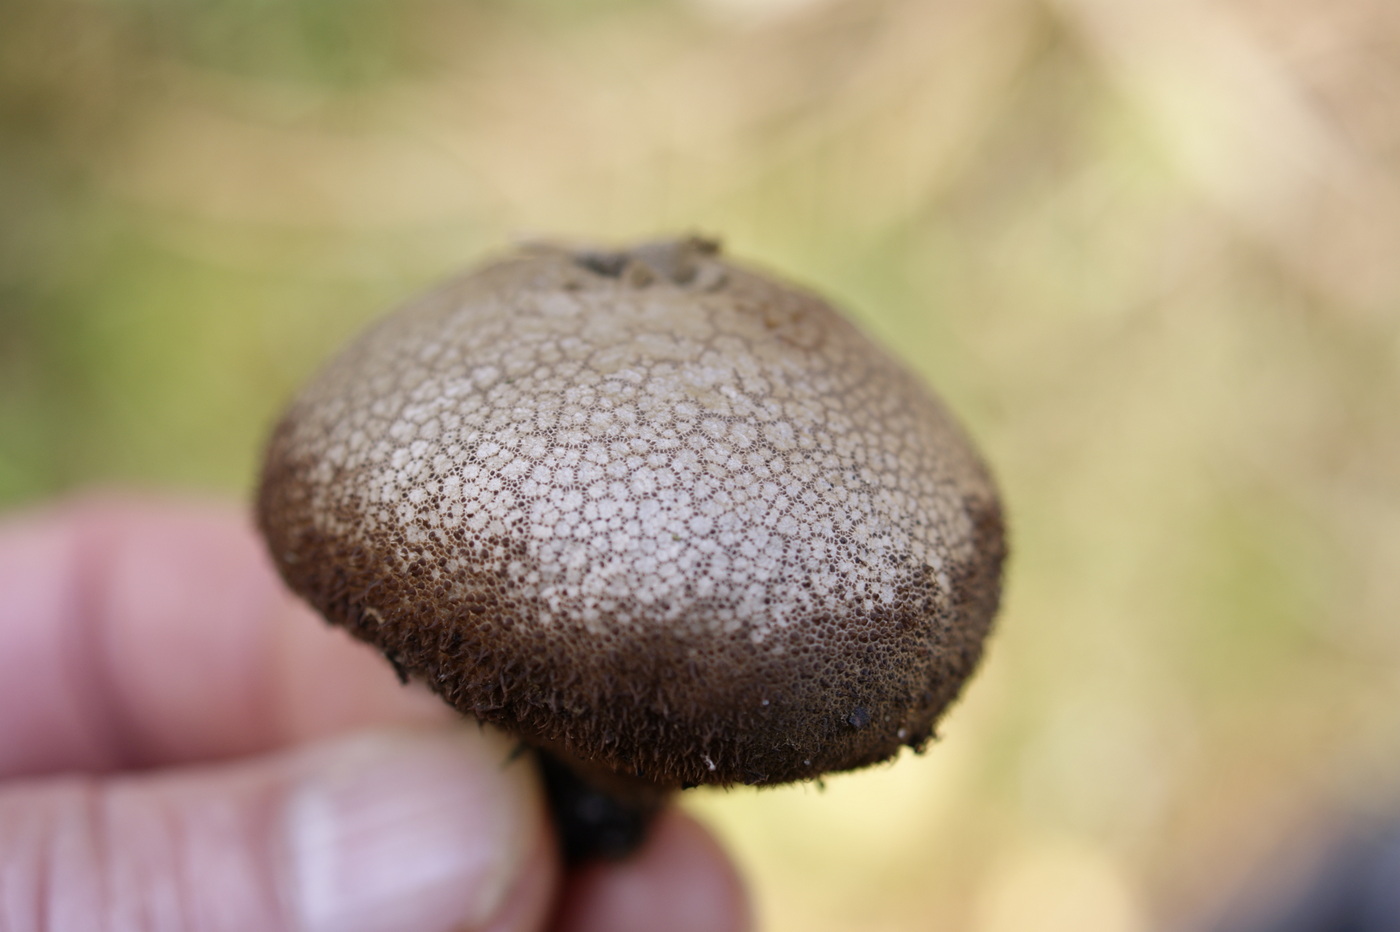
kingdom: Fungi
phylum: Basidiomycota
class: Agaricomycetes
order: Agaricales
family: Lycoperdaceae
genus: Lycoperdon
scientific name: Lycoperdon nigrescens
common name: sortagtig støvbold
